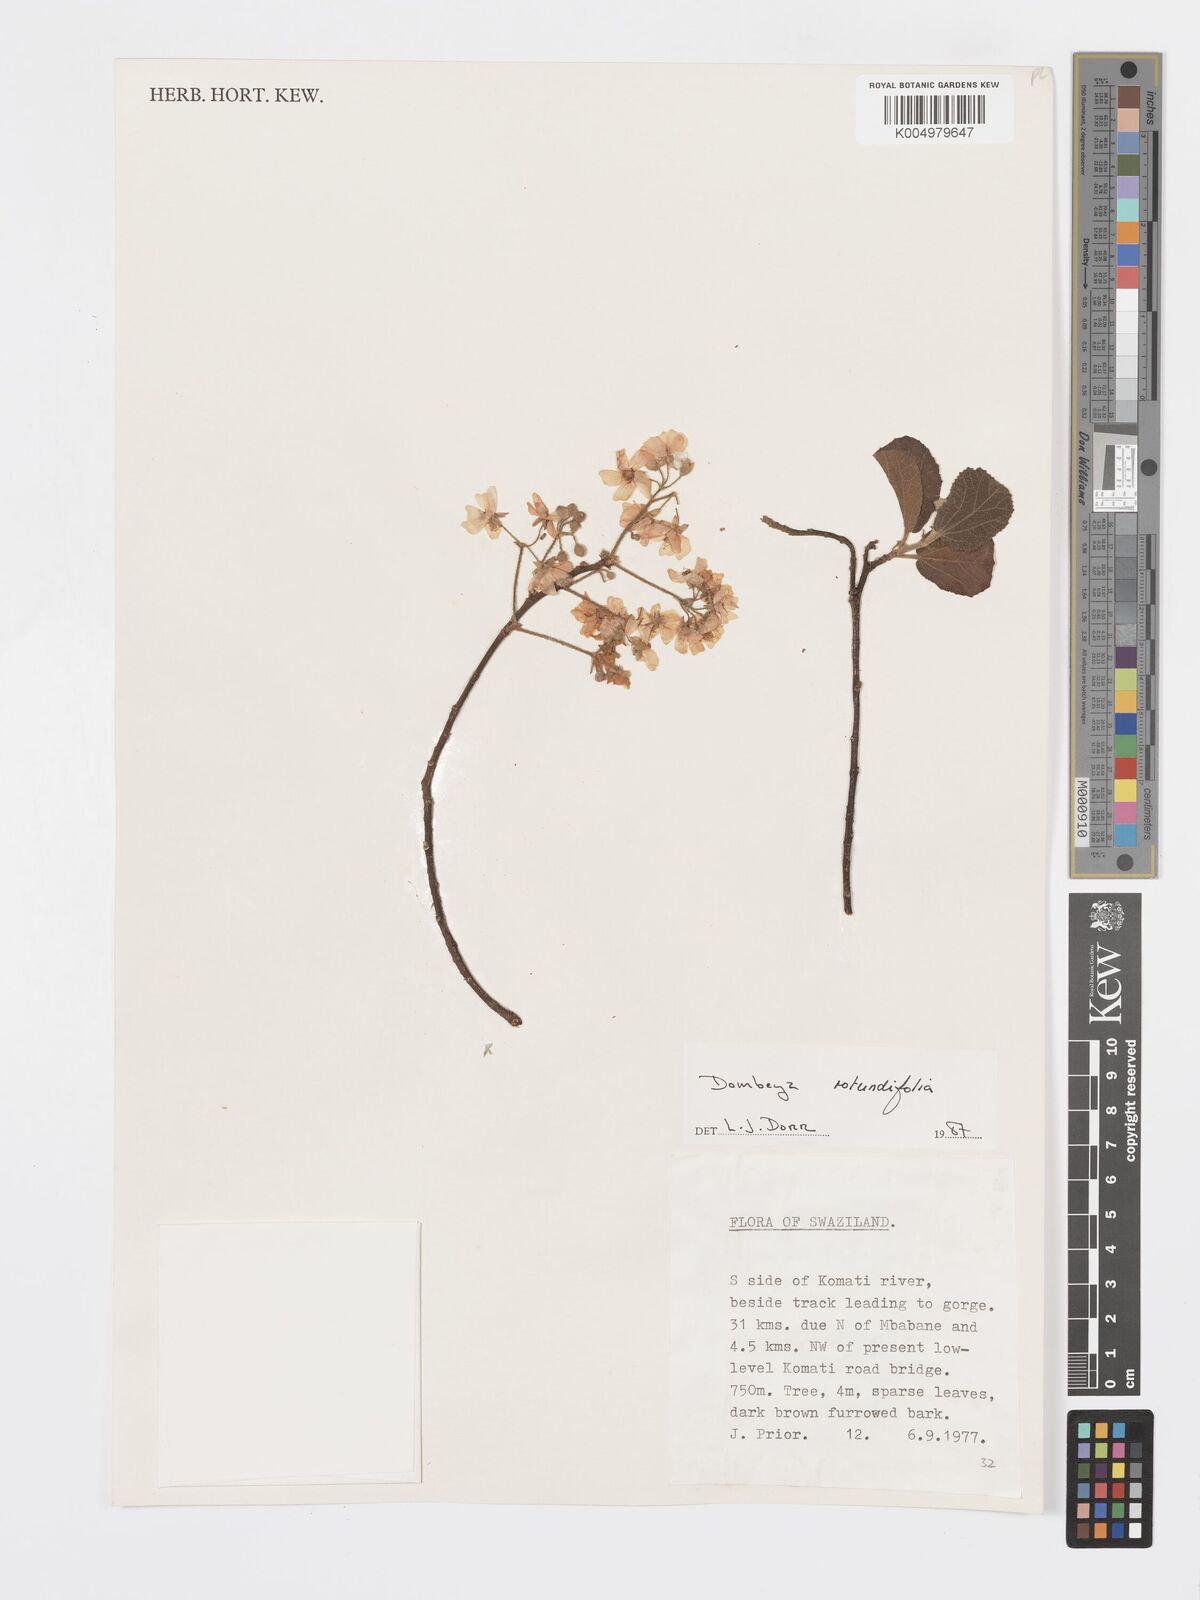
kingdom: Plantae
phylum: Tracheophyta
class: Magnoliopsida
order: Malvales
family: Malvaceae
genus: Dombeya
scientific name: Dombeya rotundifolia
